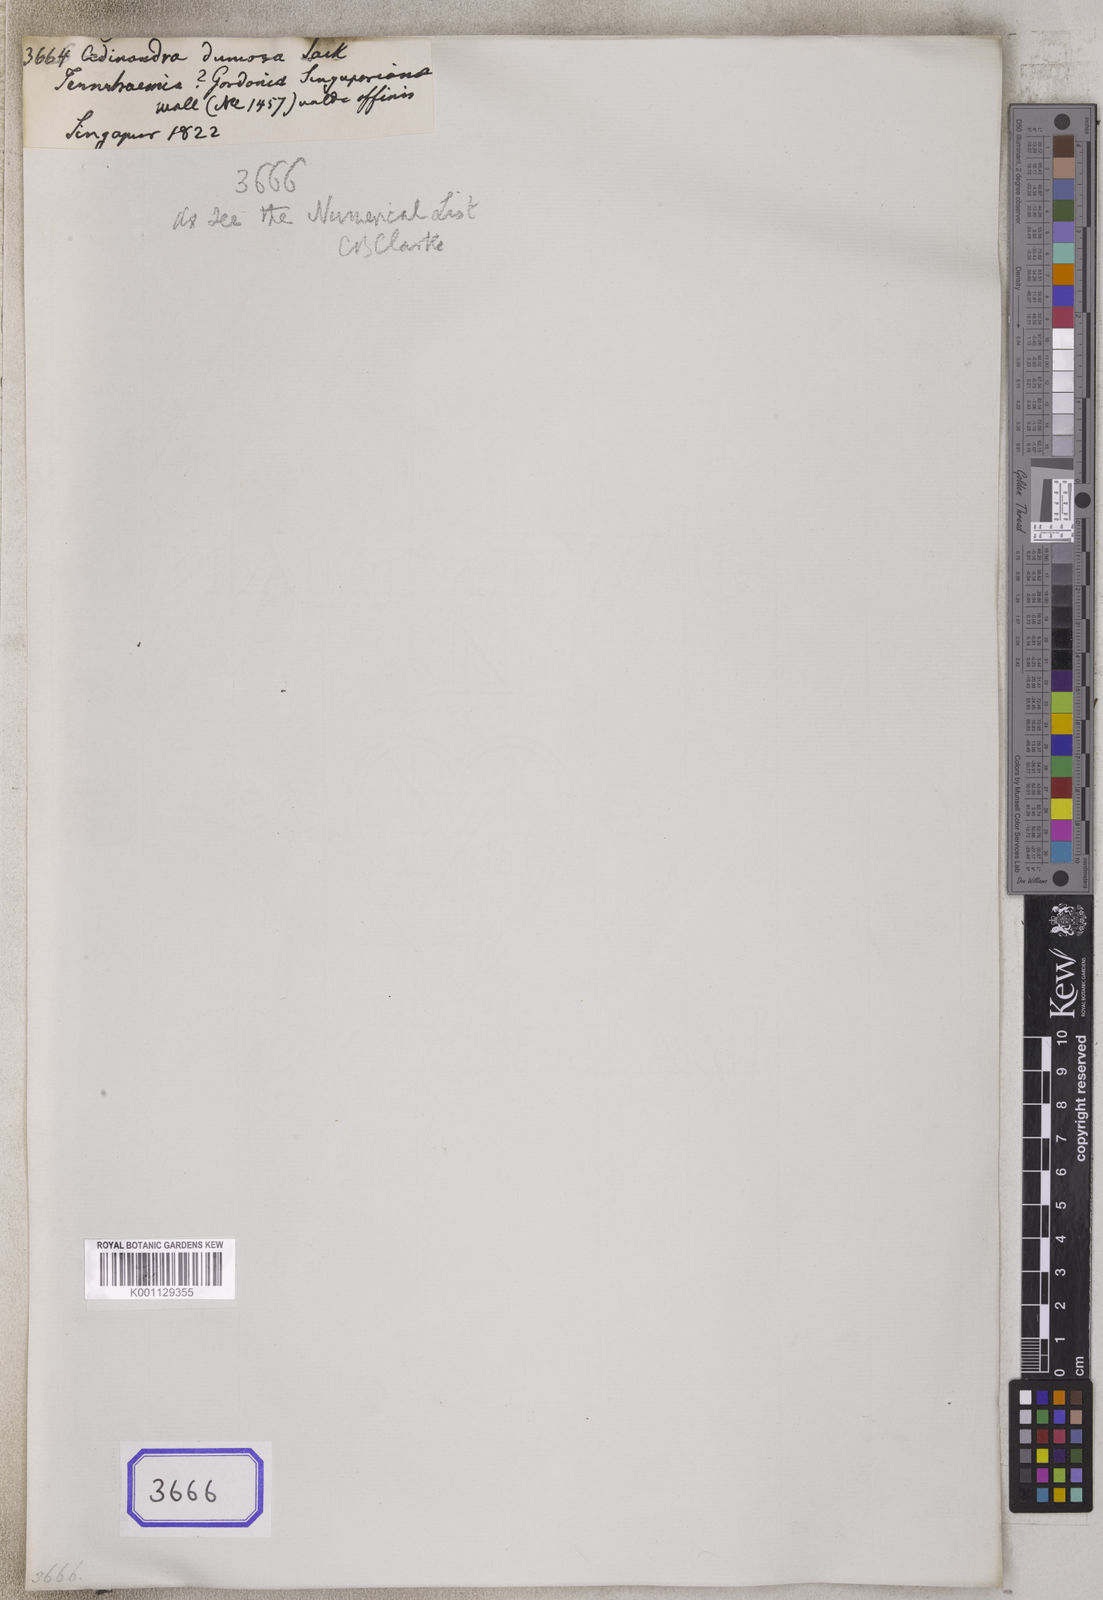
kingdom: Plantae
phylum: Tracheophyta
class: Magnoliopsida
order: Ericales
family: Pentaphylacaceae
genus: Adinandra
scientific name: Adinandra dumosa
